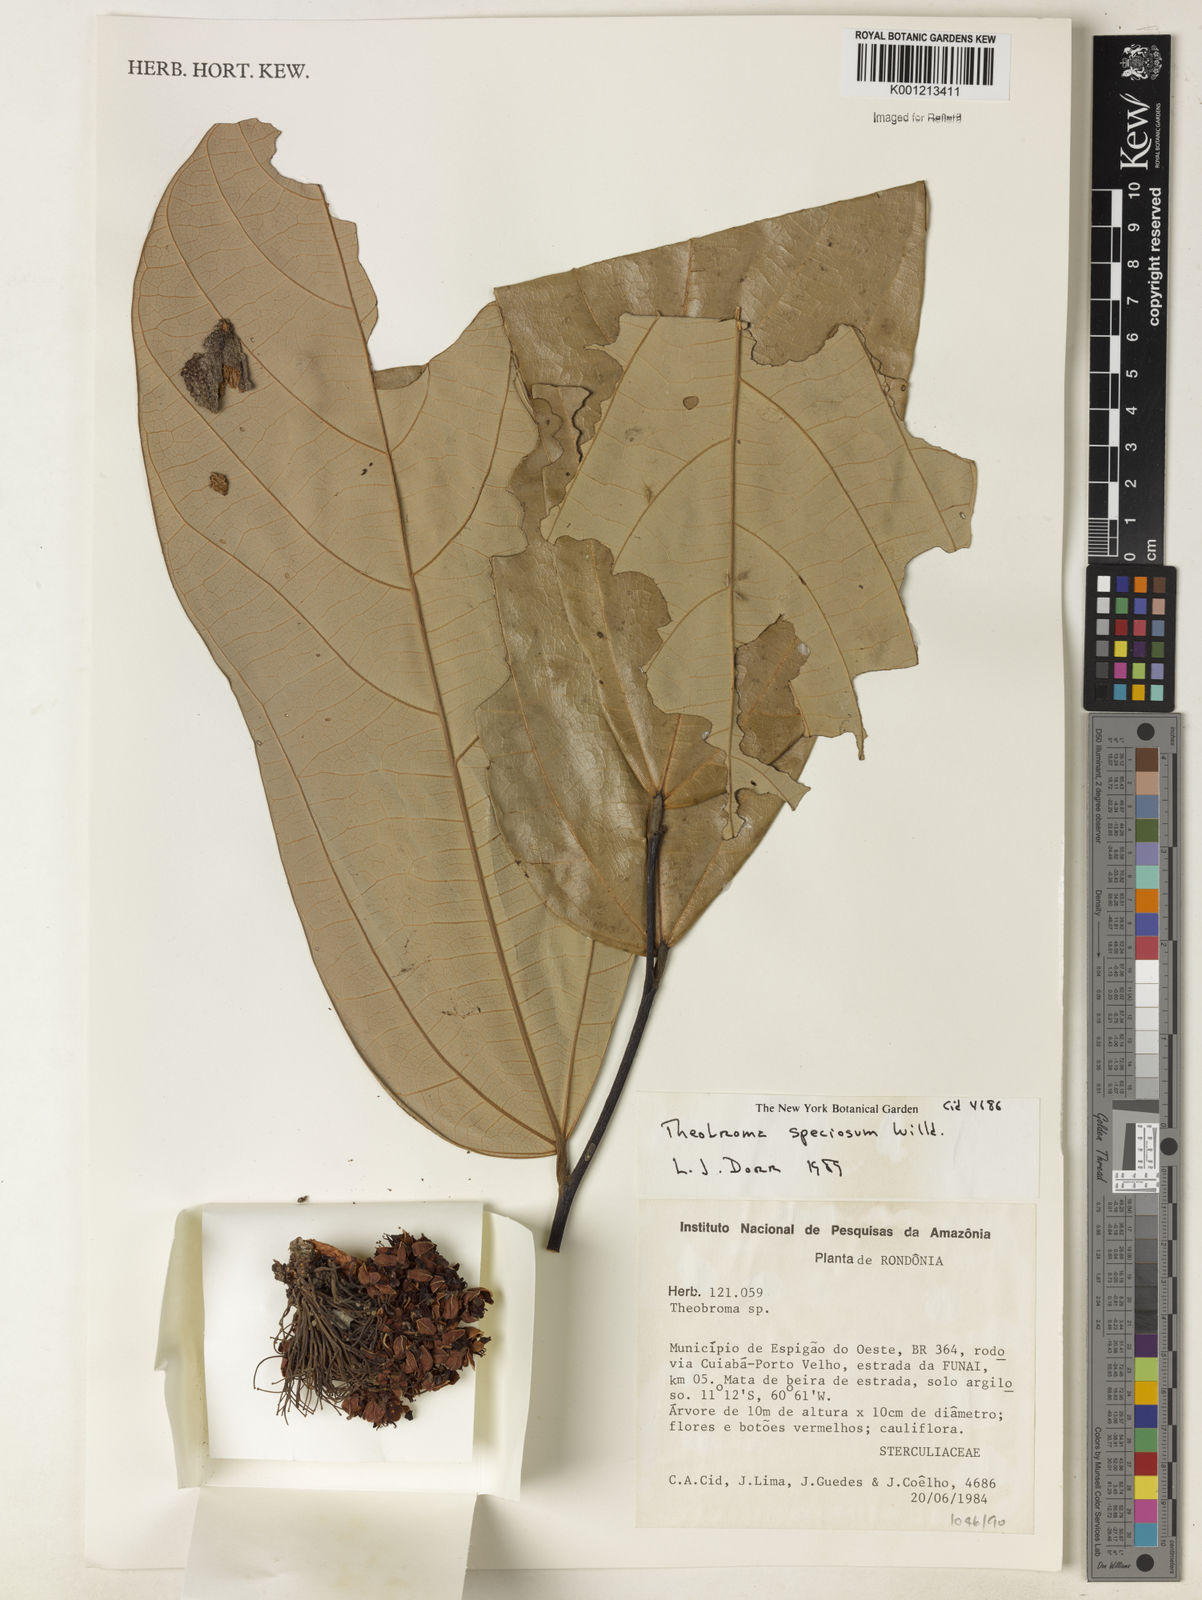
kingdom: Plantae
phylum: Tracheophyta
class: Magnoliopsida
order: Malvales
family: Malvaceae
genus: Theobroma
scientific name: Theobroma speciosum
